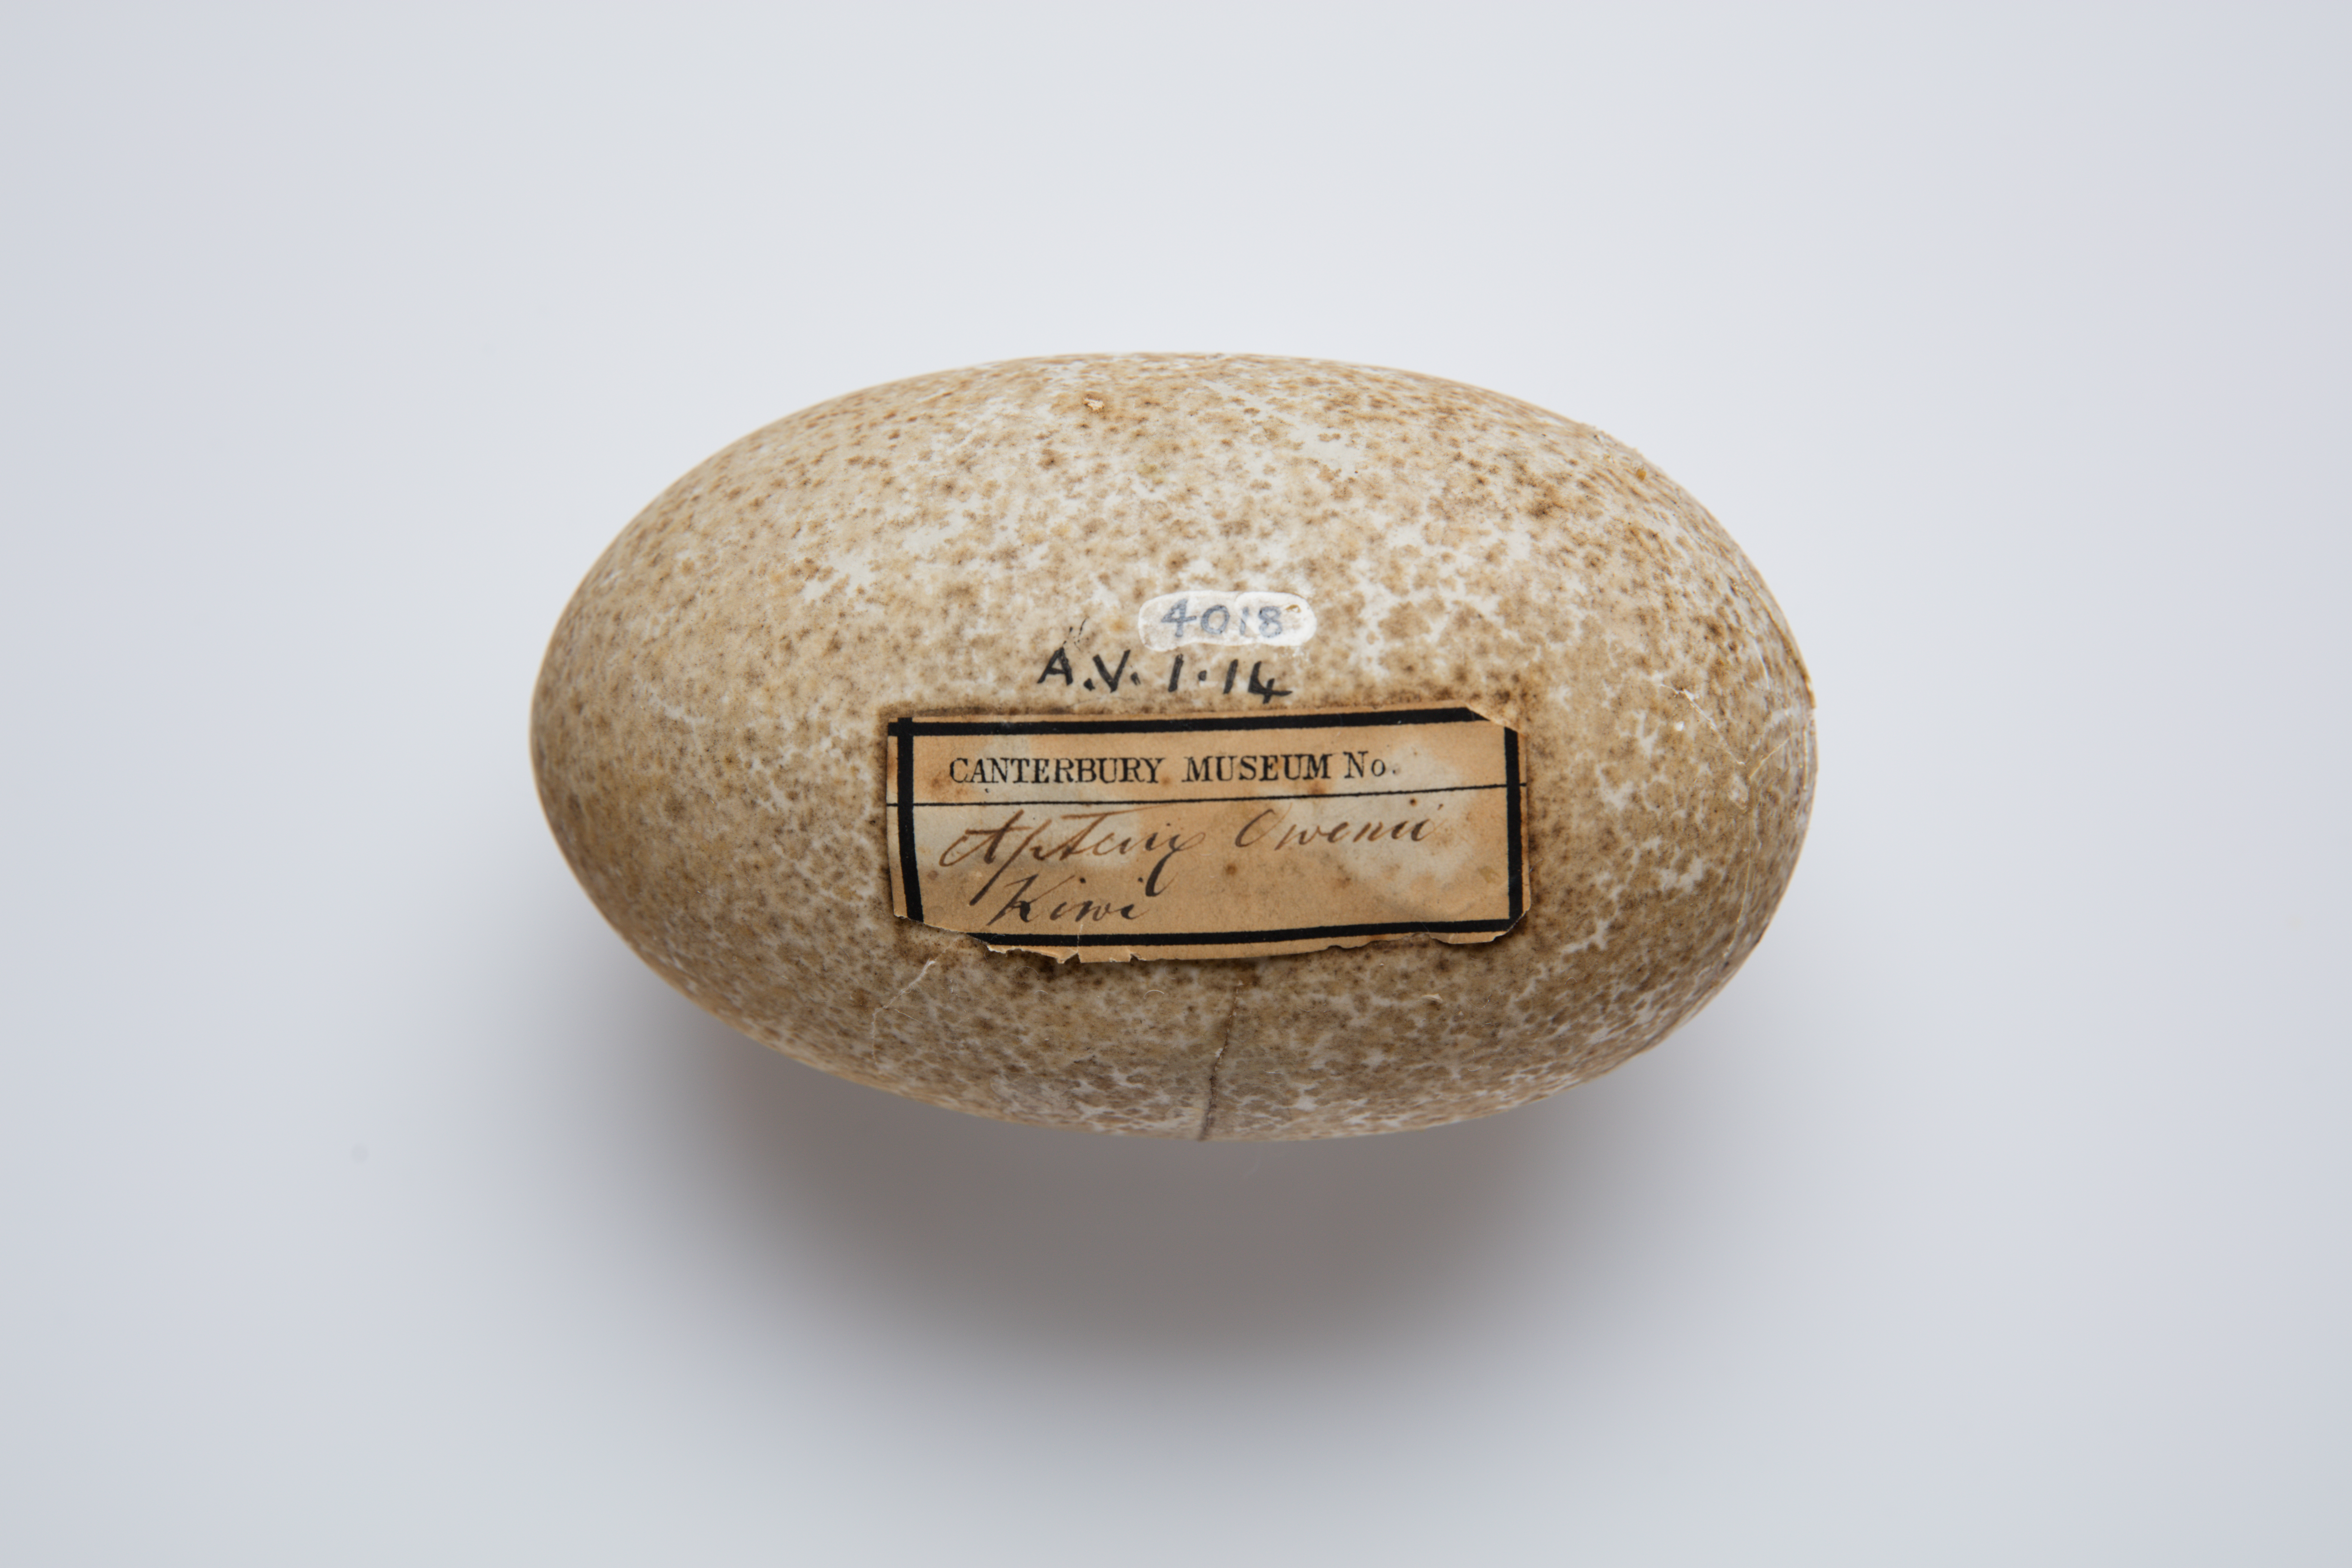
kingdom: Animalia
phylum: Chordata
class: Aves
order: Apterygiformes
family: Apterygidae
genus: Apteryx
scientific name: Apteryx owenii
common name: Little spotted kiwi
